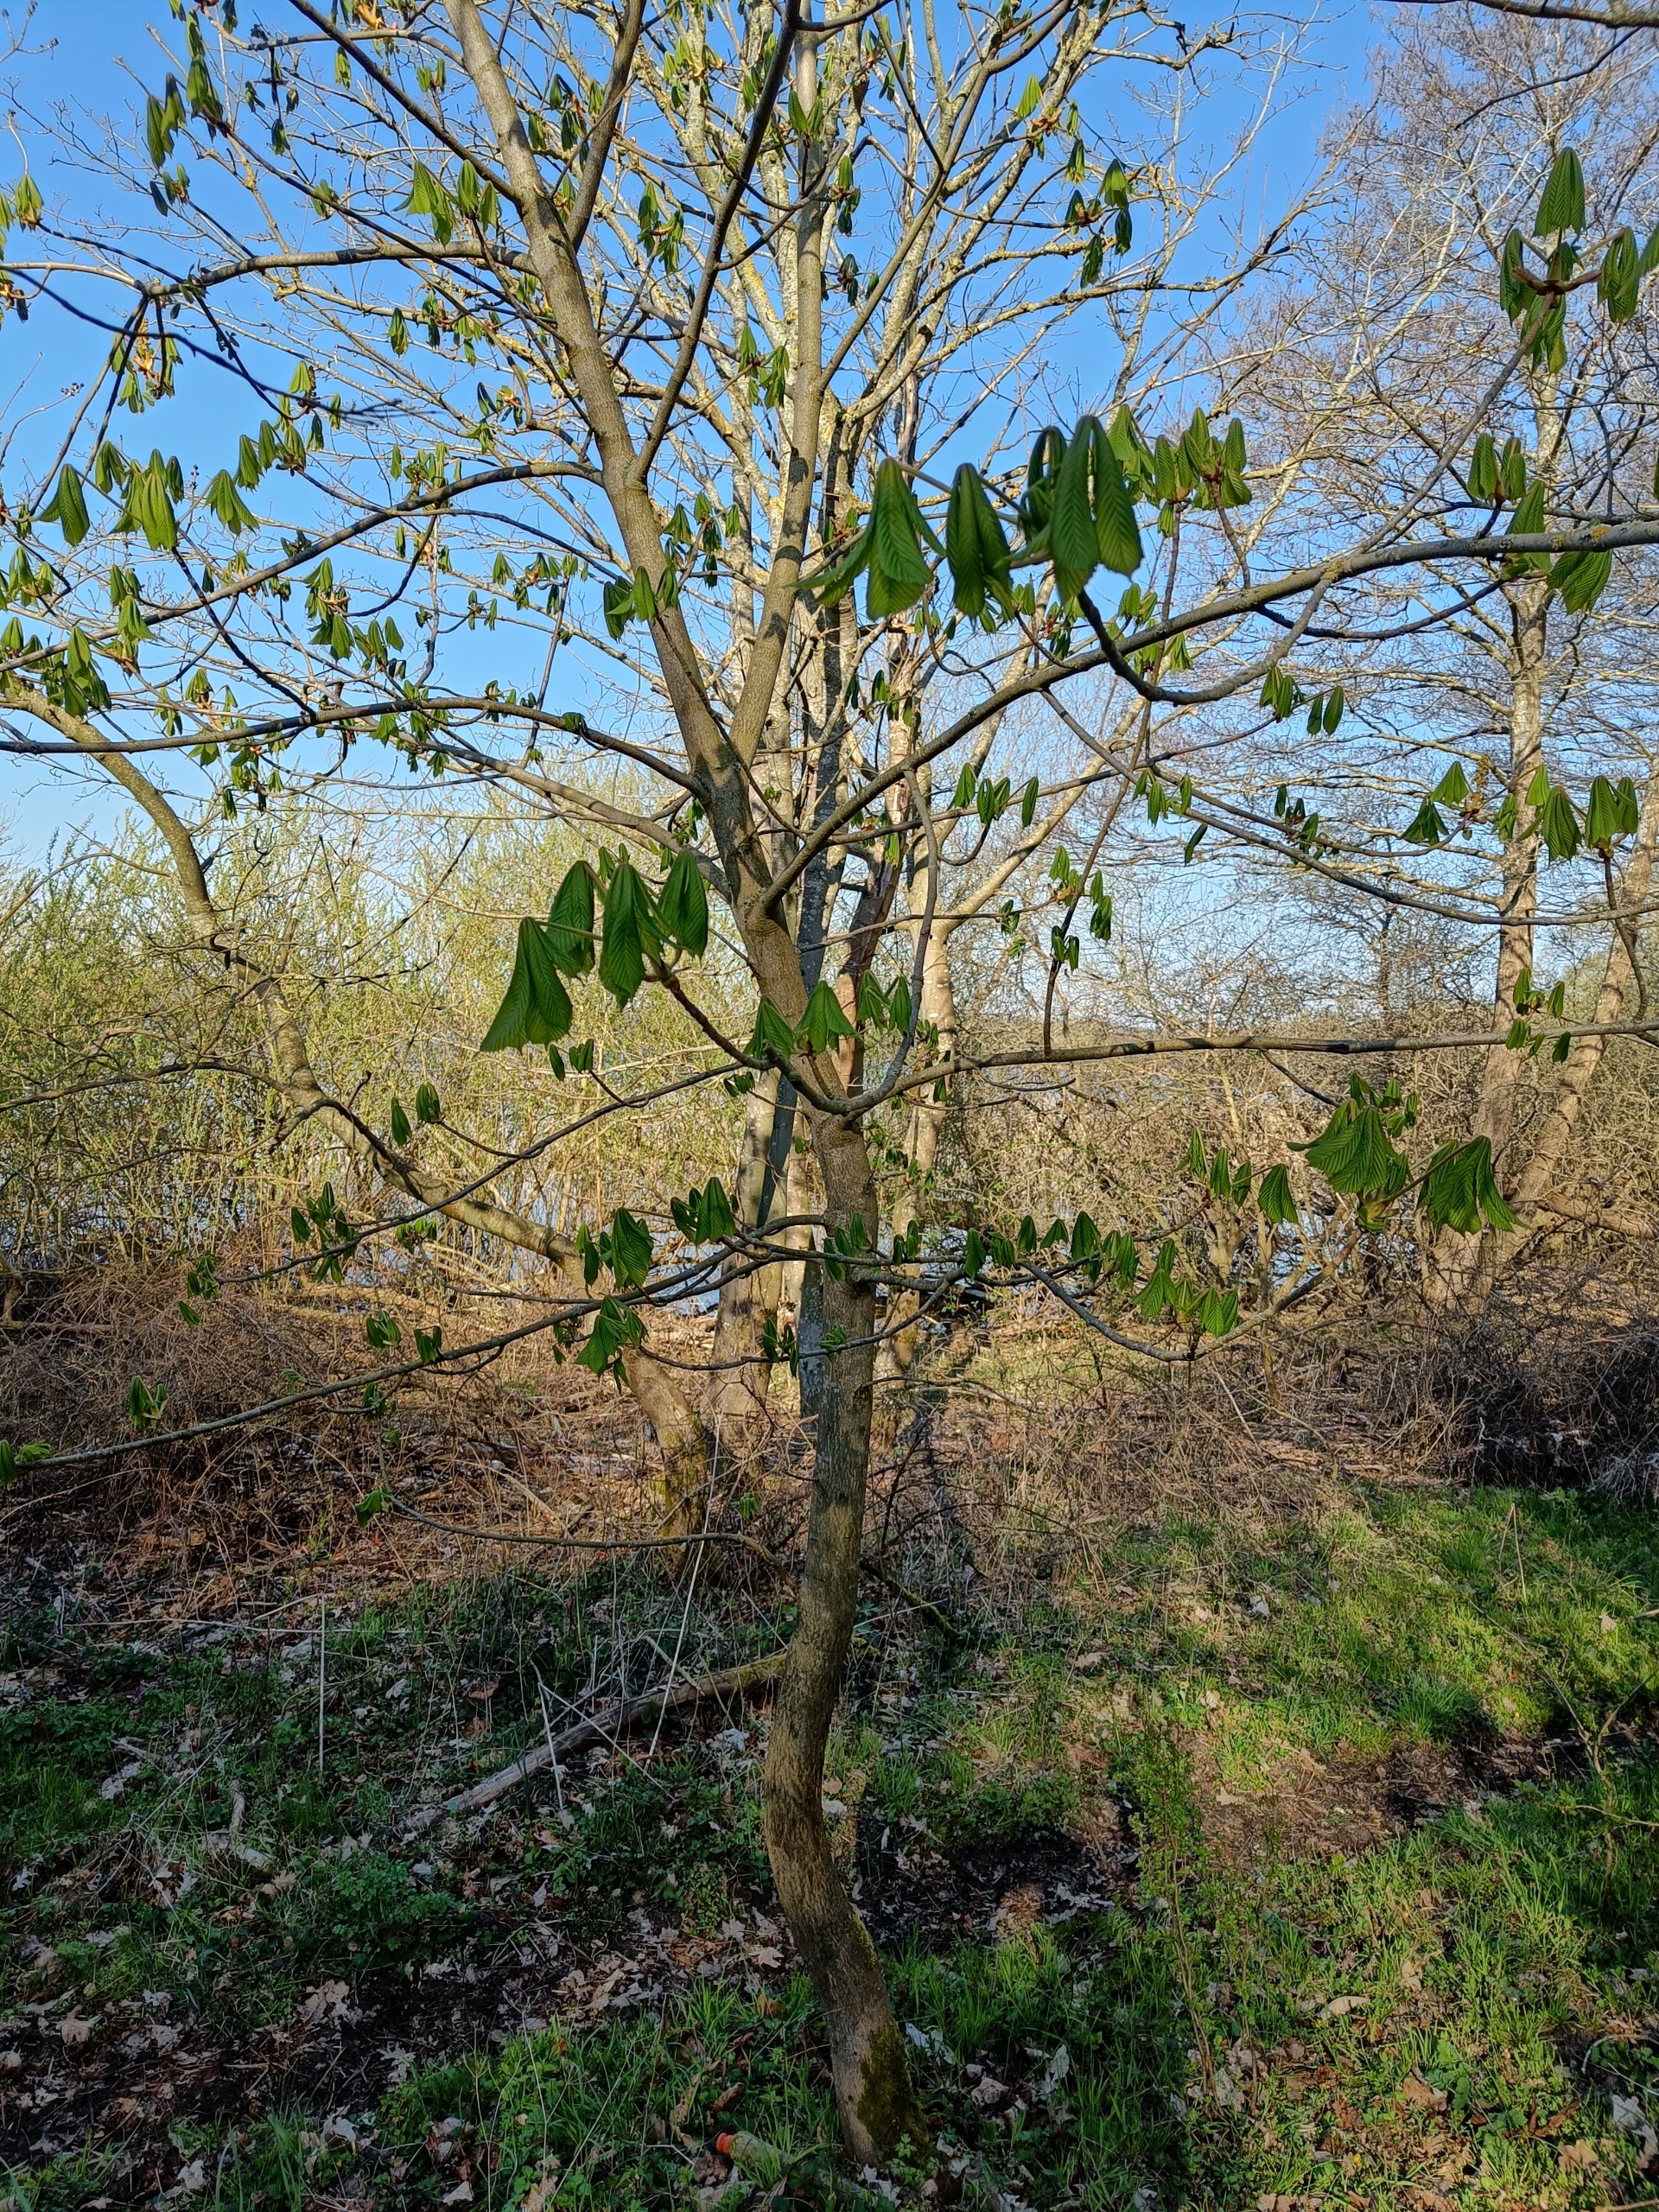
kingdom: Plantae
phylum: Tracheophyta
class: Magnoliopsida
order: Sapindales
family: Sapindaceae
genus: Aesculus
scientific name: Aesculus hippocastanum
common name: Hestekastanie
